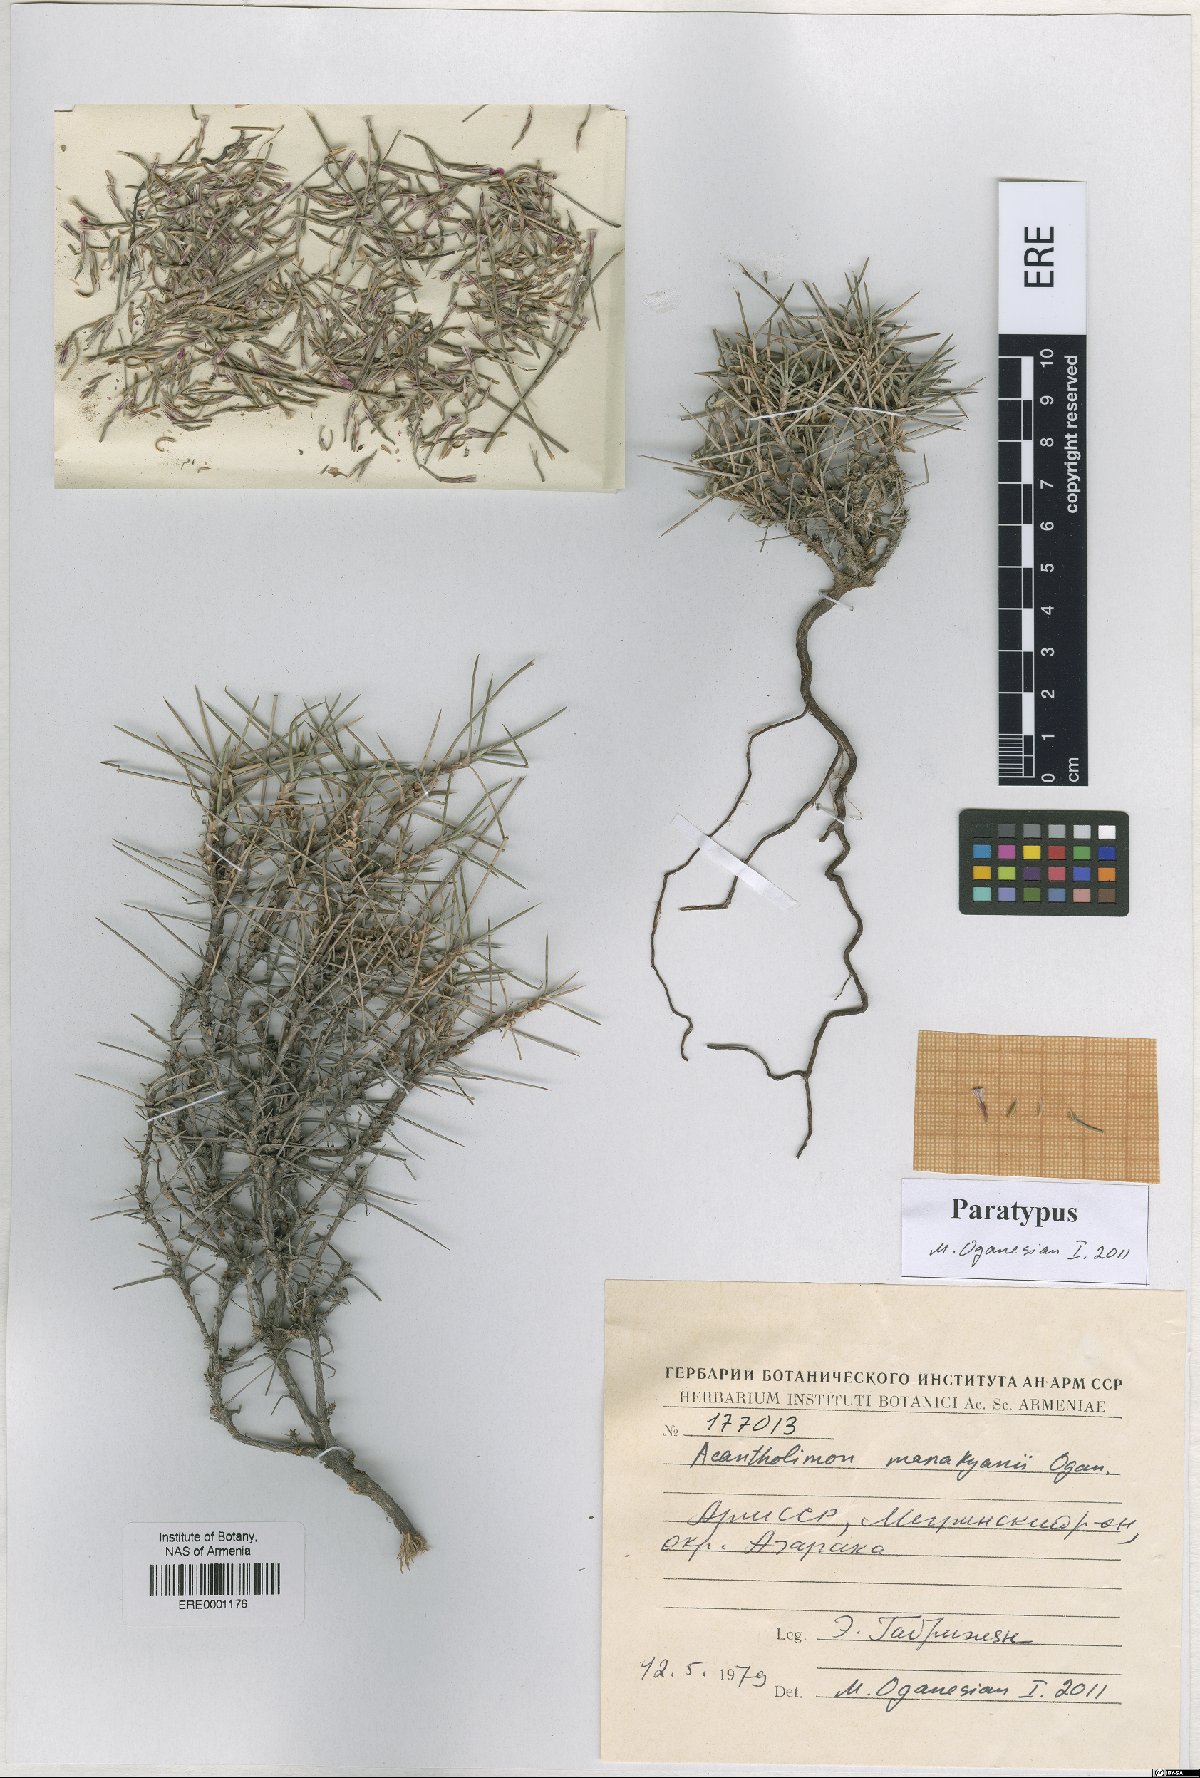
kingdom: Plantae
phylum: Tracheophyta
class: Magnoliopsida
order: Caryophyllales
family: Plumbaginaceae
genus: Acantholimon
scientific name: Acantholimon manakyanii
